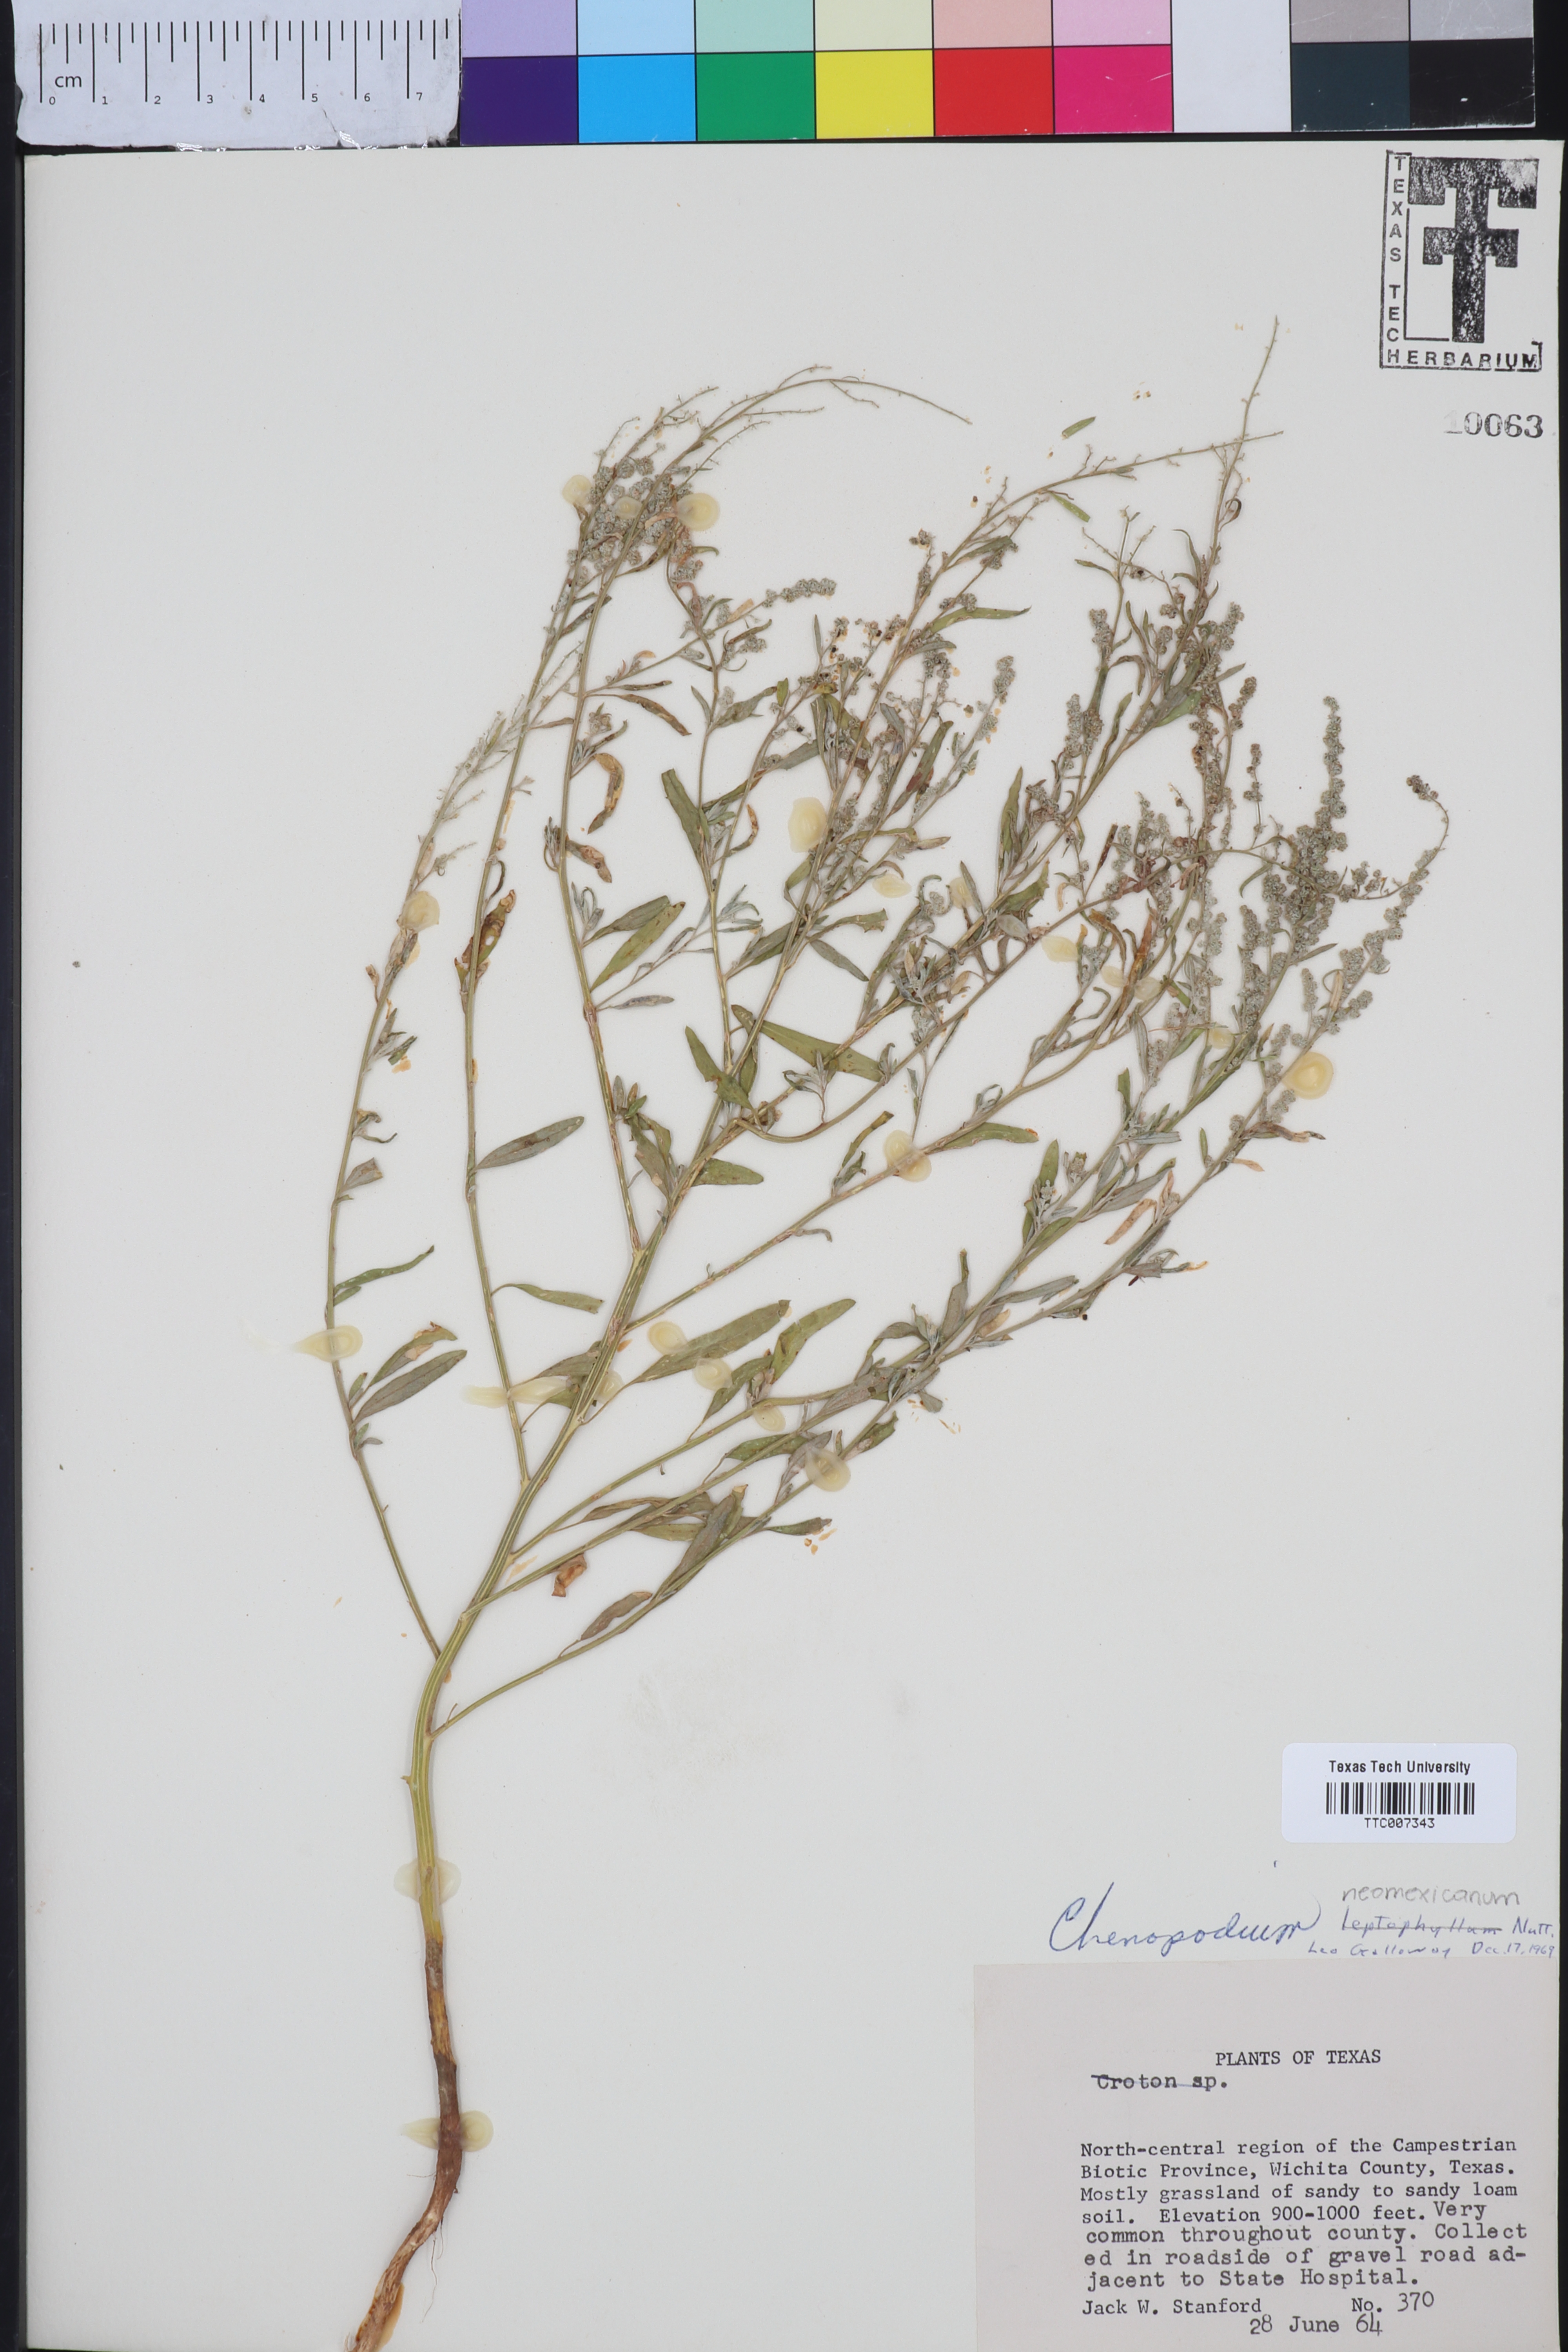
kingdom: Plantae
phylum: Tracheophyta
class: Magnoliopsida
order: Caryophyllales
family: Amaranthaceae
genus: Chenopodium
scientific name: Chenopodium leptophyllum
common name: Narrow-leaf goosefoot
